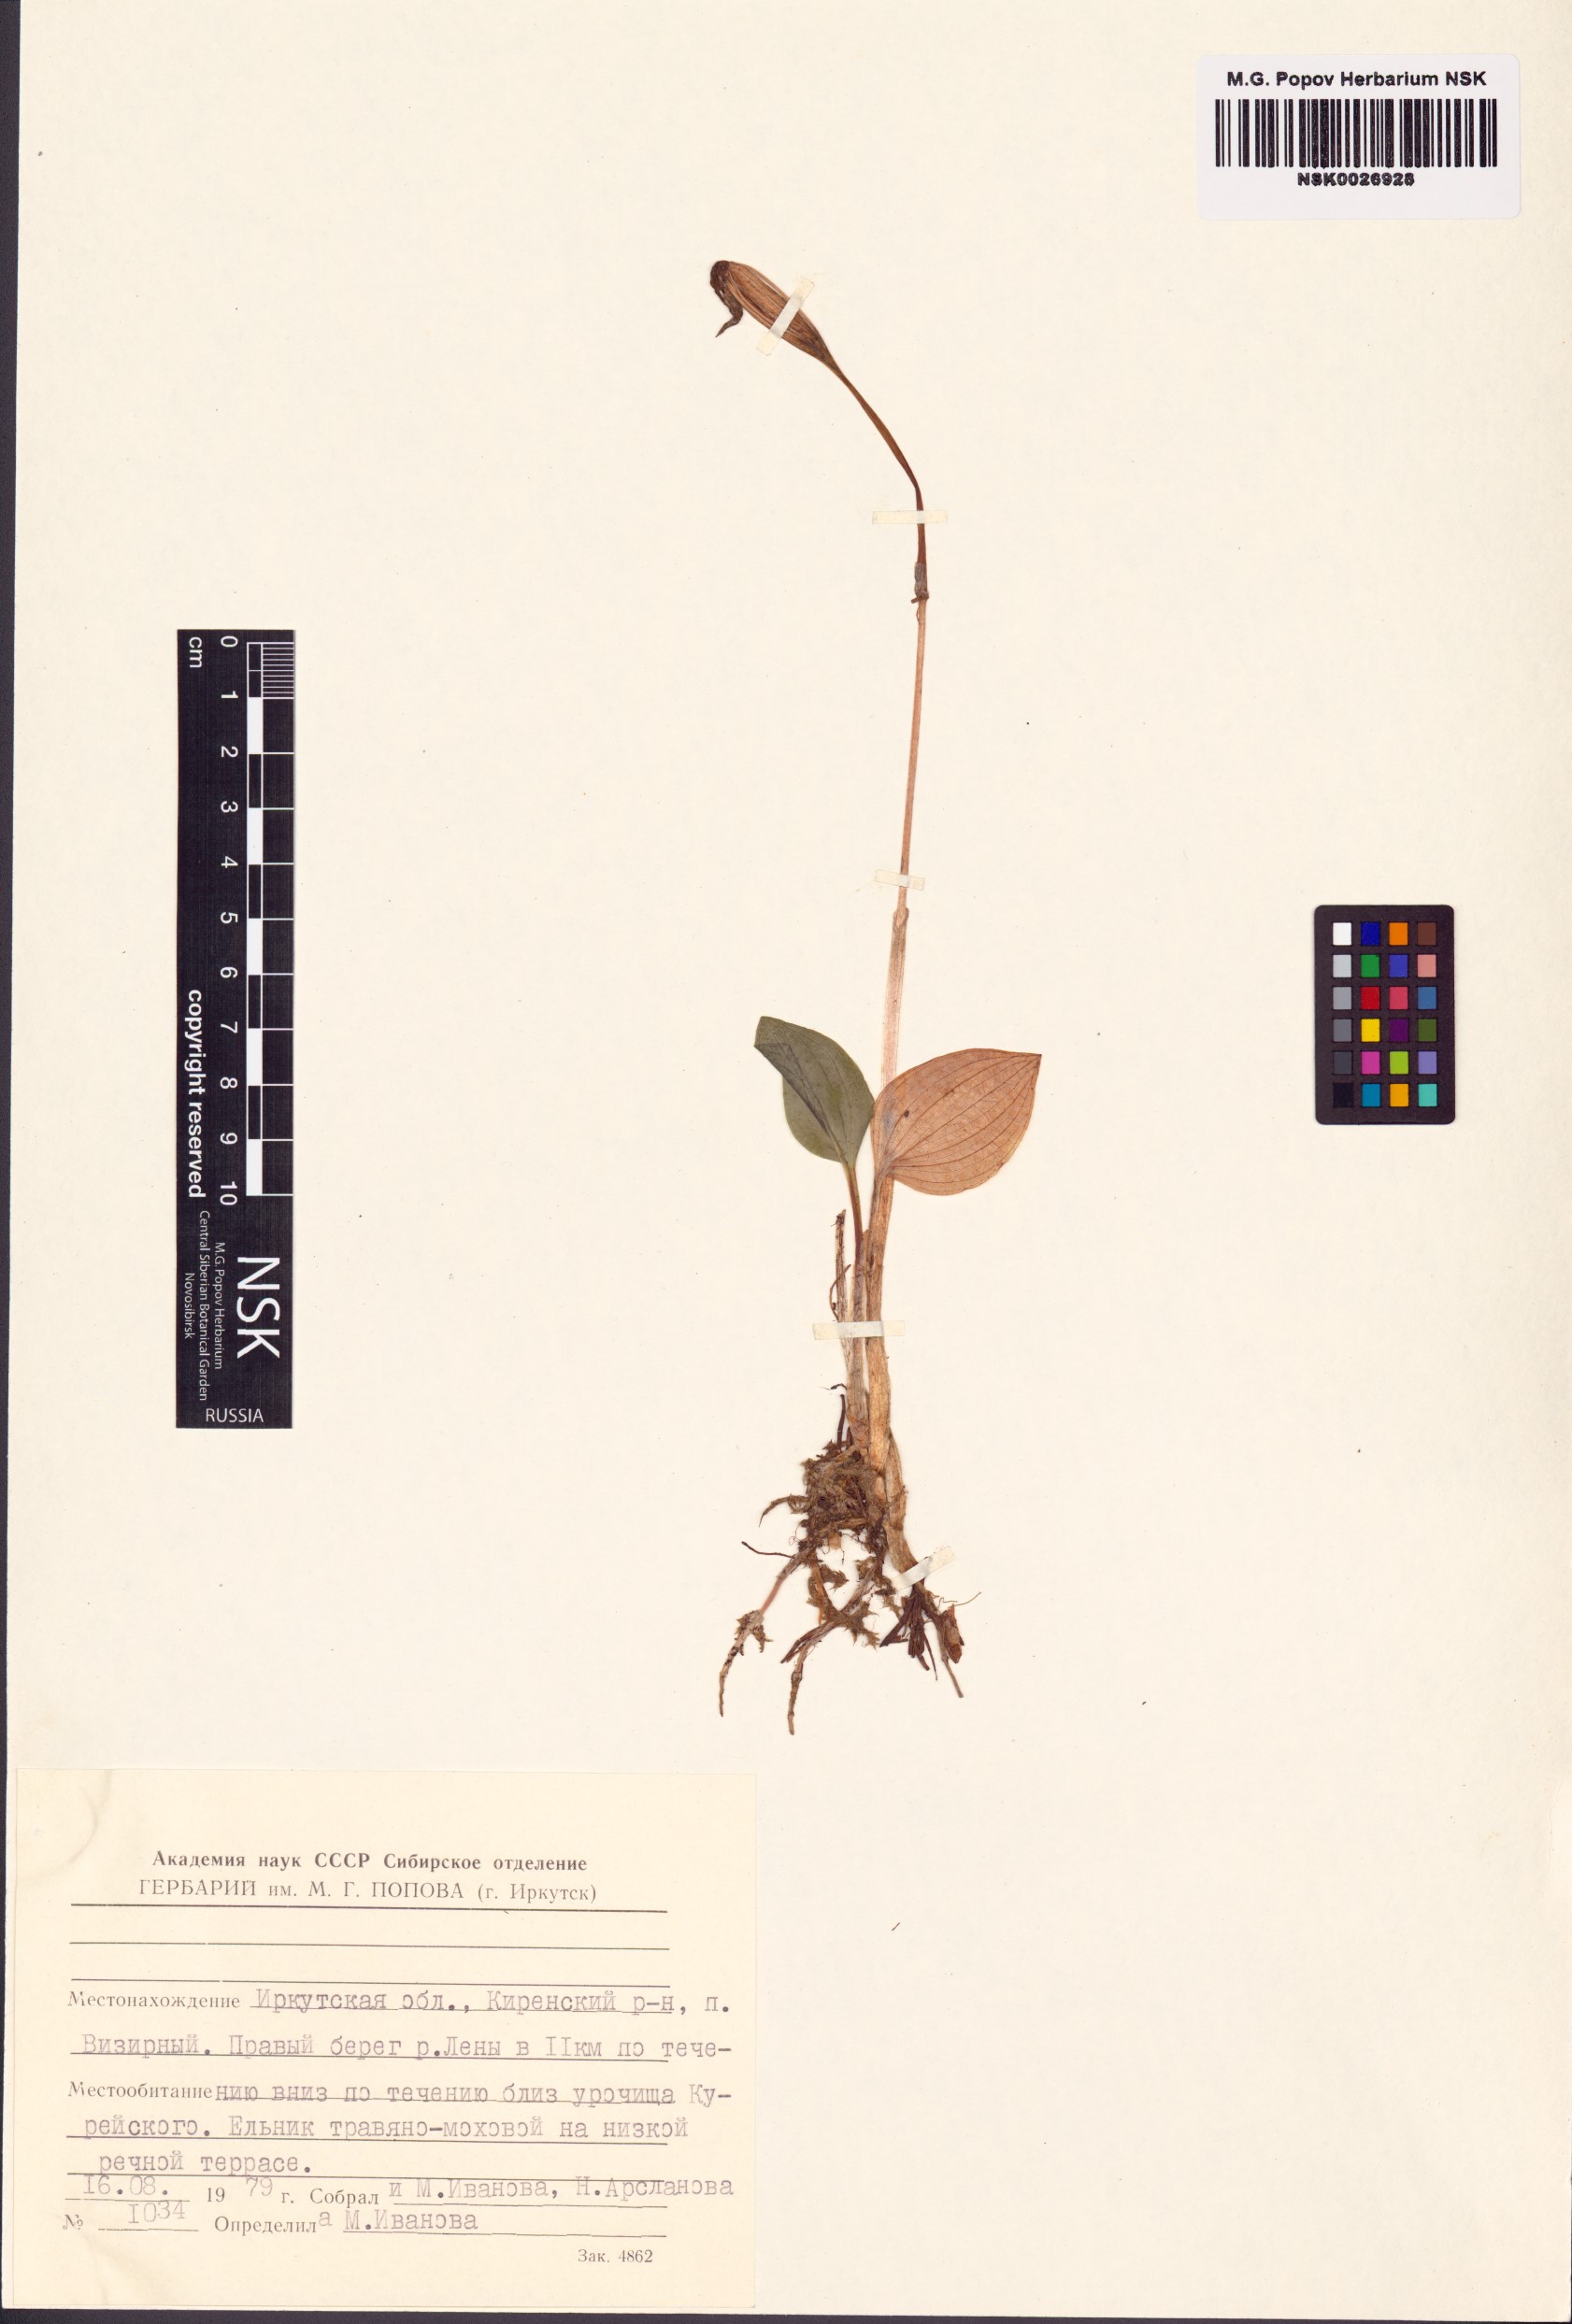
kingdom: Plantae
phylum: Tracheophyta
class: Liliopsida
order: Asparagales
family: Orchidaceae
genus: Calypso
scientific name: Calypso bulbosa
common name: Calypso
